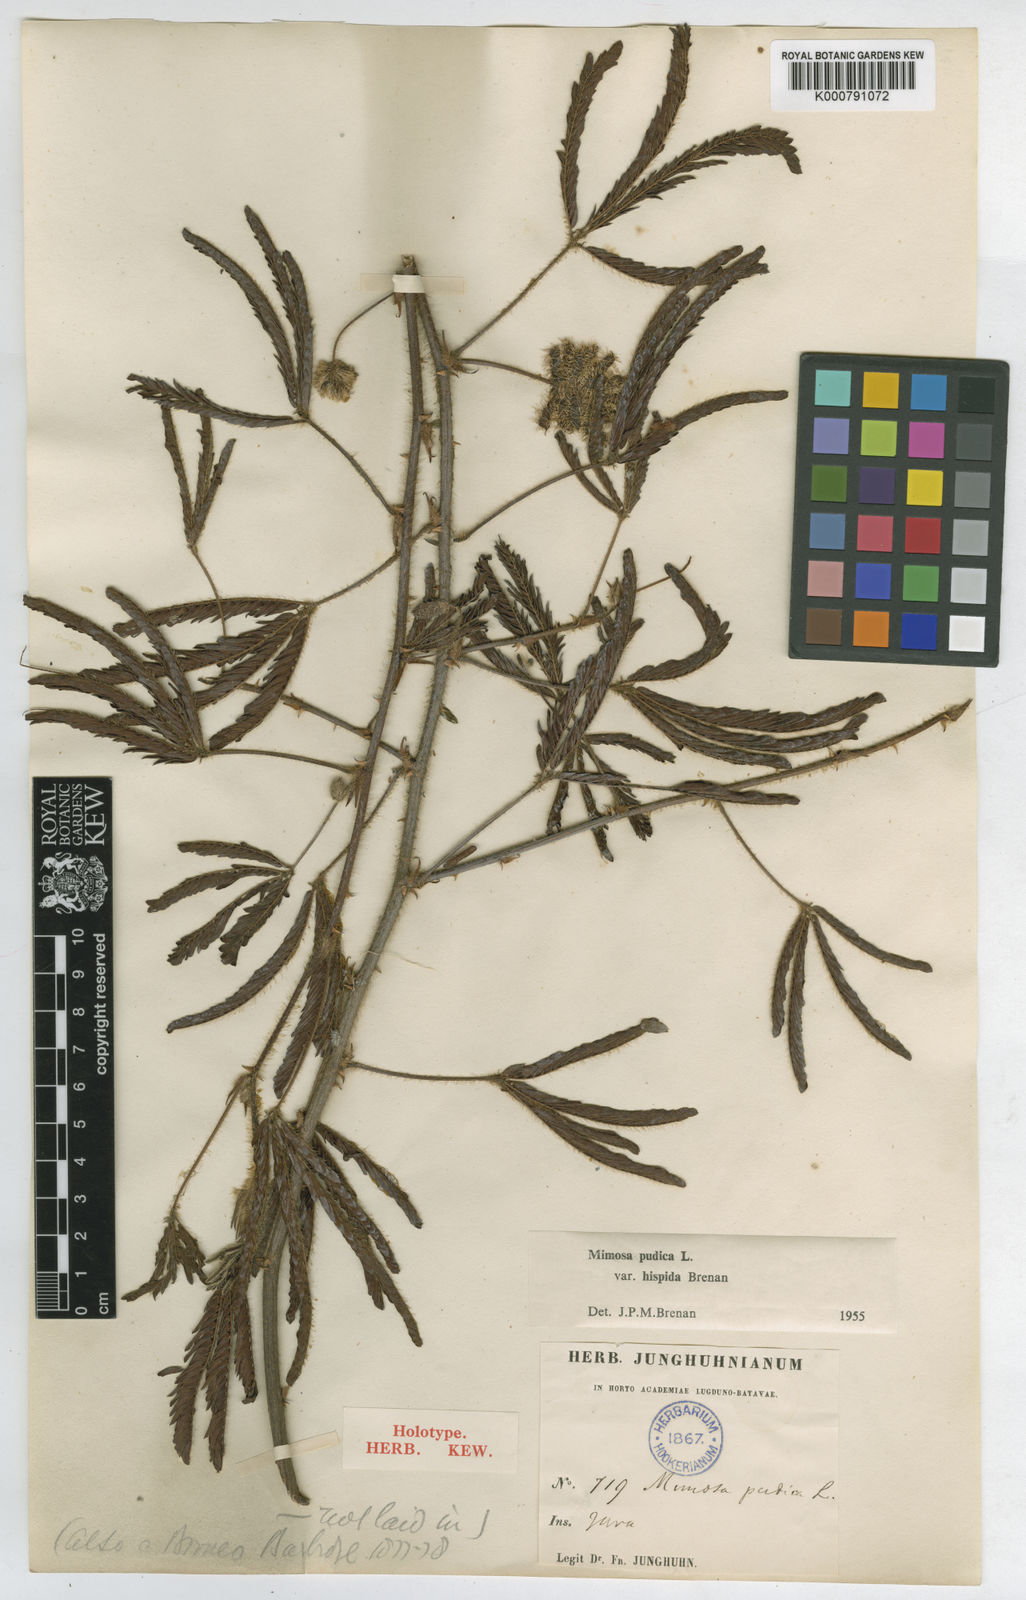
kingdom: Plantae
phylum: Tracheophyta
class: Magnoliopsida
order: Fabales
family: Fabaceae
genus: Mimosa
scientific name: Mimosa pudica
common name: Sensitive plant
